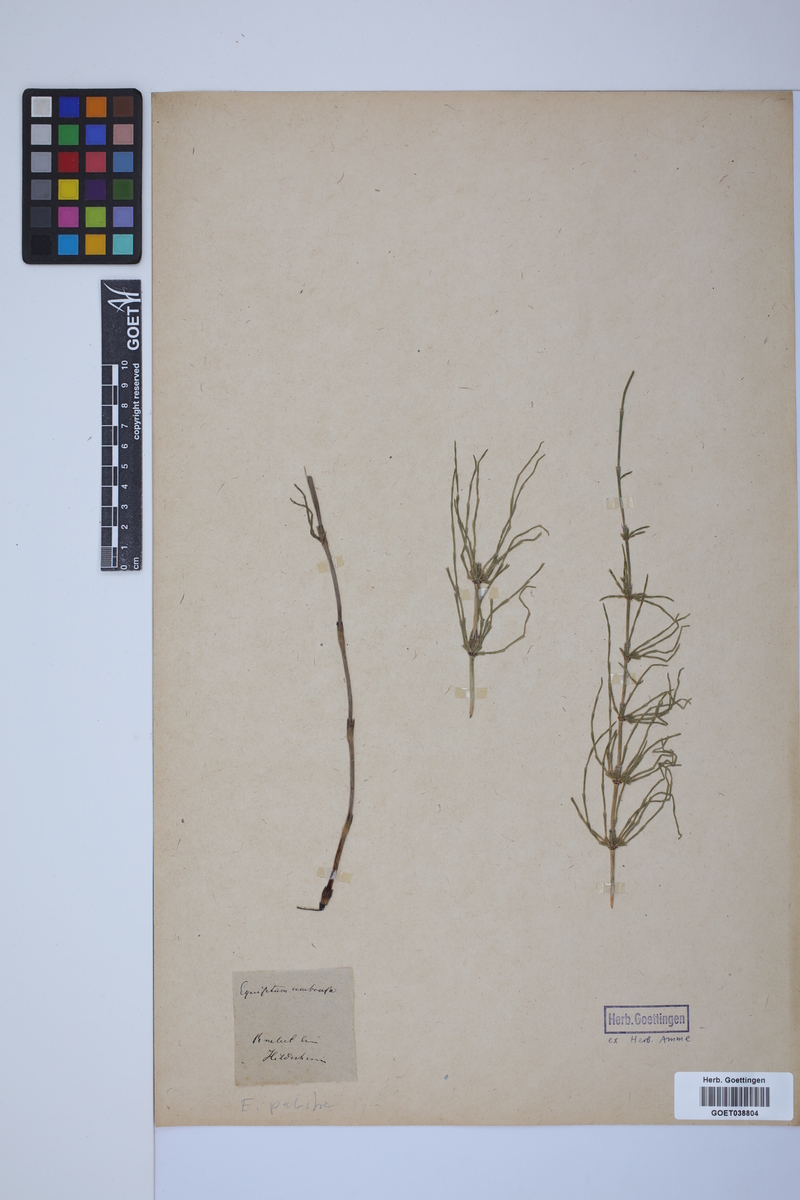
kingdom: Plantae
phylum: Tracheophyta
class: Polypodiopsida
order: Equisetales
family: Equisetaceae
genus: Equisetum
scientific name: Equisetum palustre
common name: Marsh horsetail
